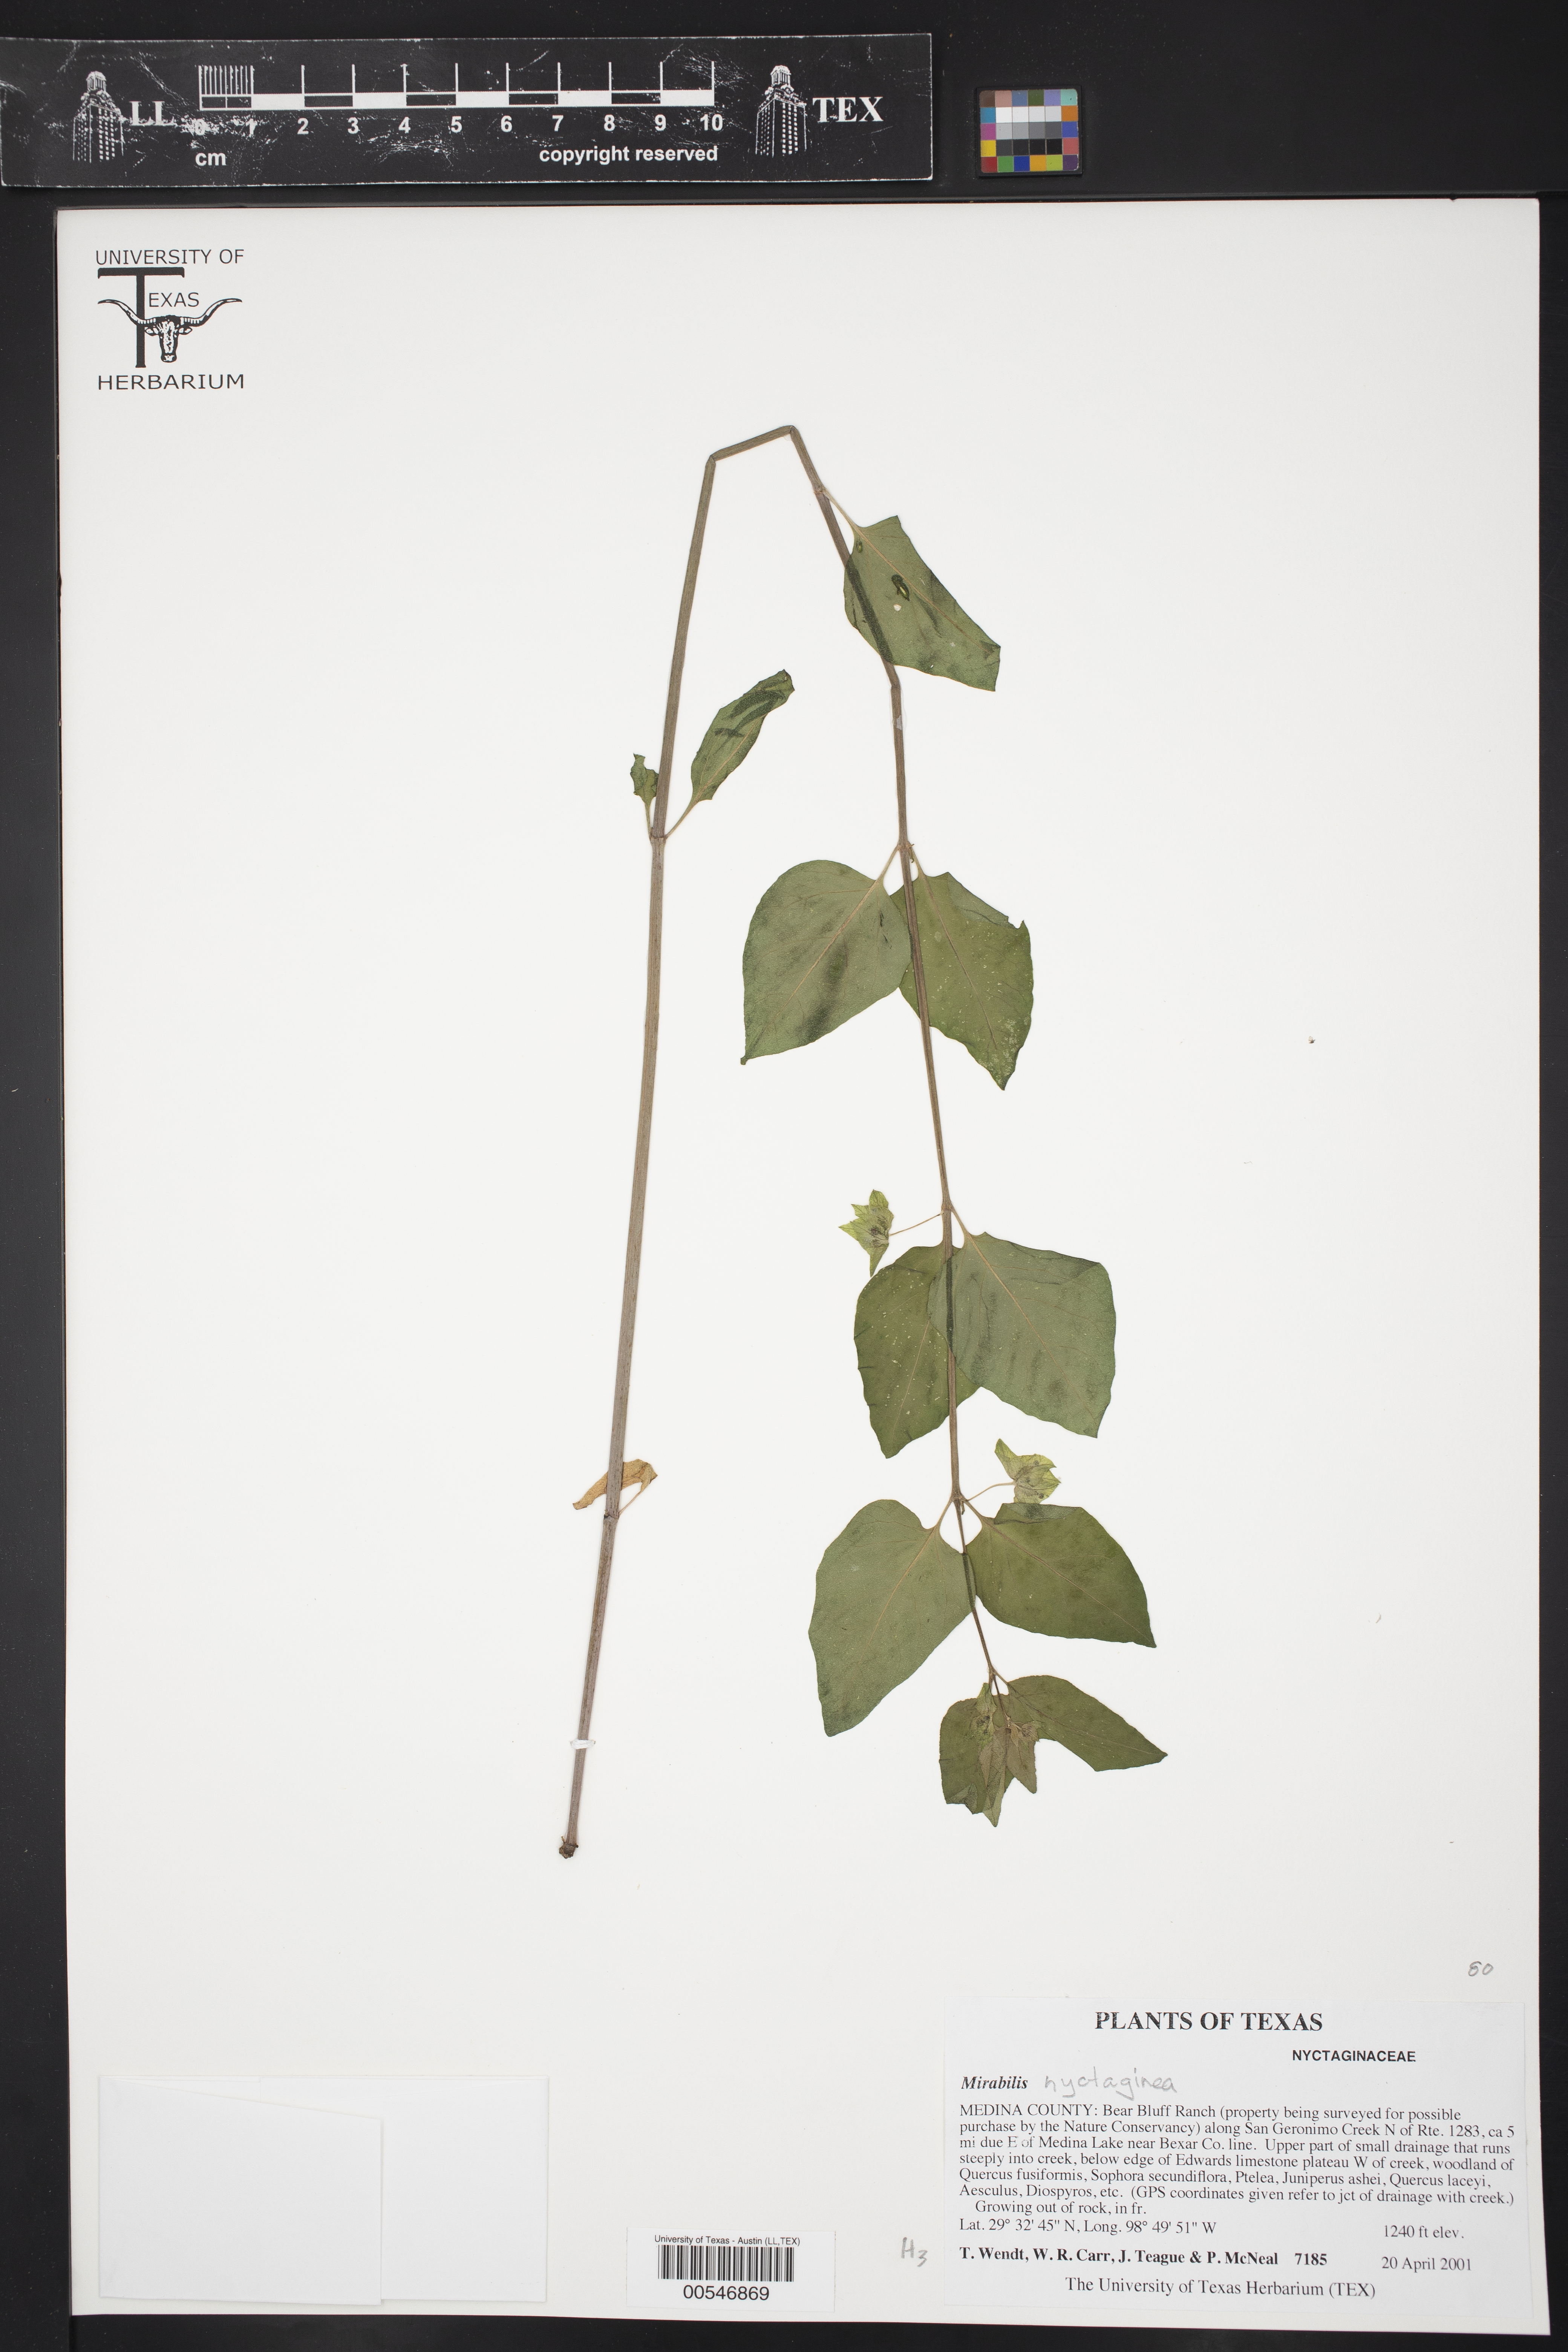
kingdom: Plantae
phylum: Tracheophyta
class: Magnoliopsida
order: Caryophyllales
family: Nyctaginaceae
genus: Mirabilis
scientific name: Mirabilis
